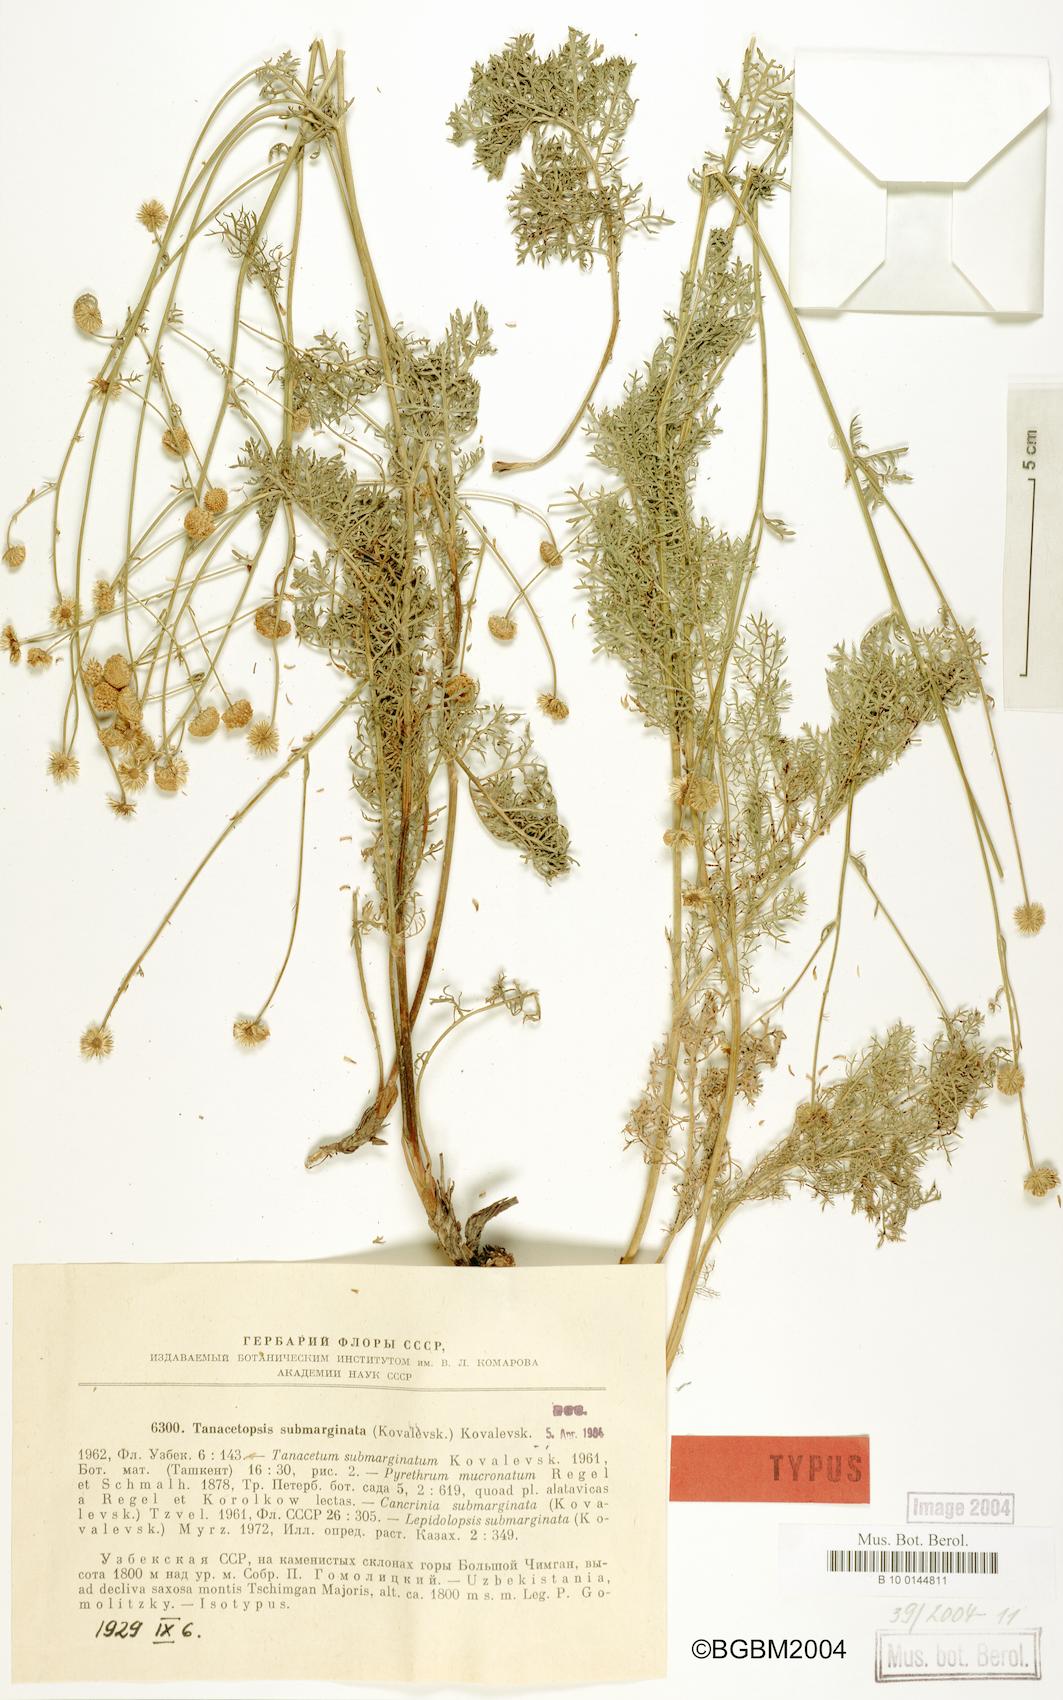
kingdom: Plantae
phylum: Tracheophyta
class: Magnoliopsida
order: Asterales
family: Asteraceae
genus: Tanacetopsis
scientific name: Tanacetopsis submarginata
